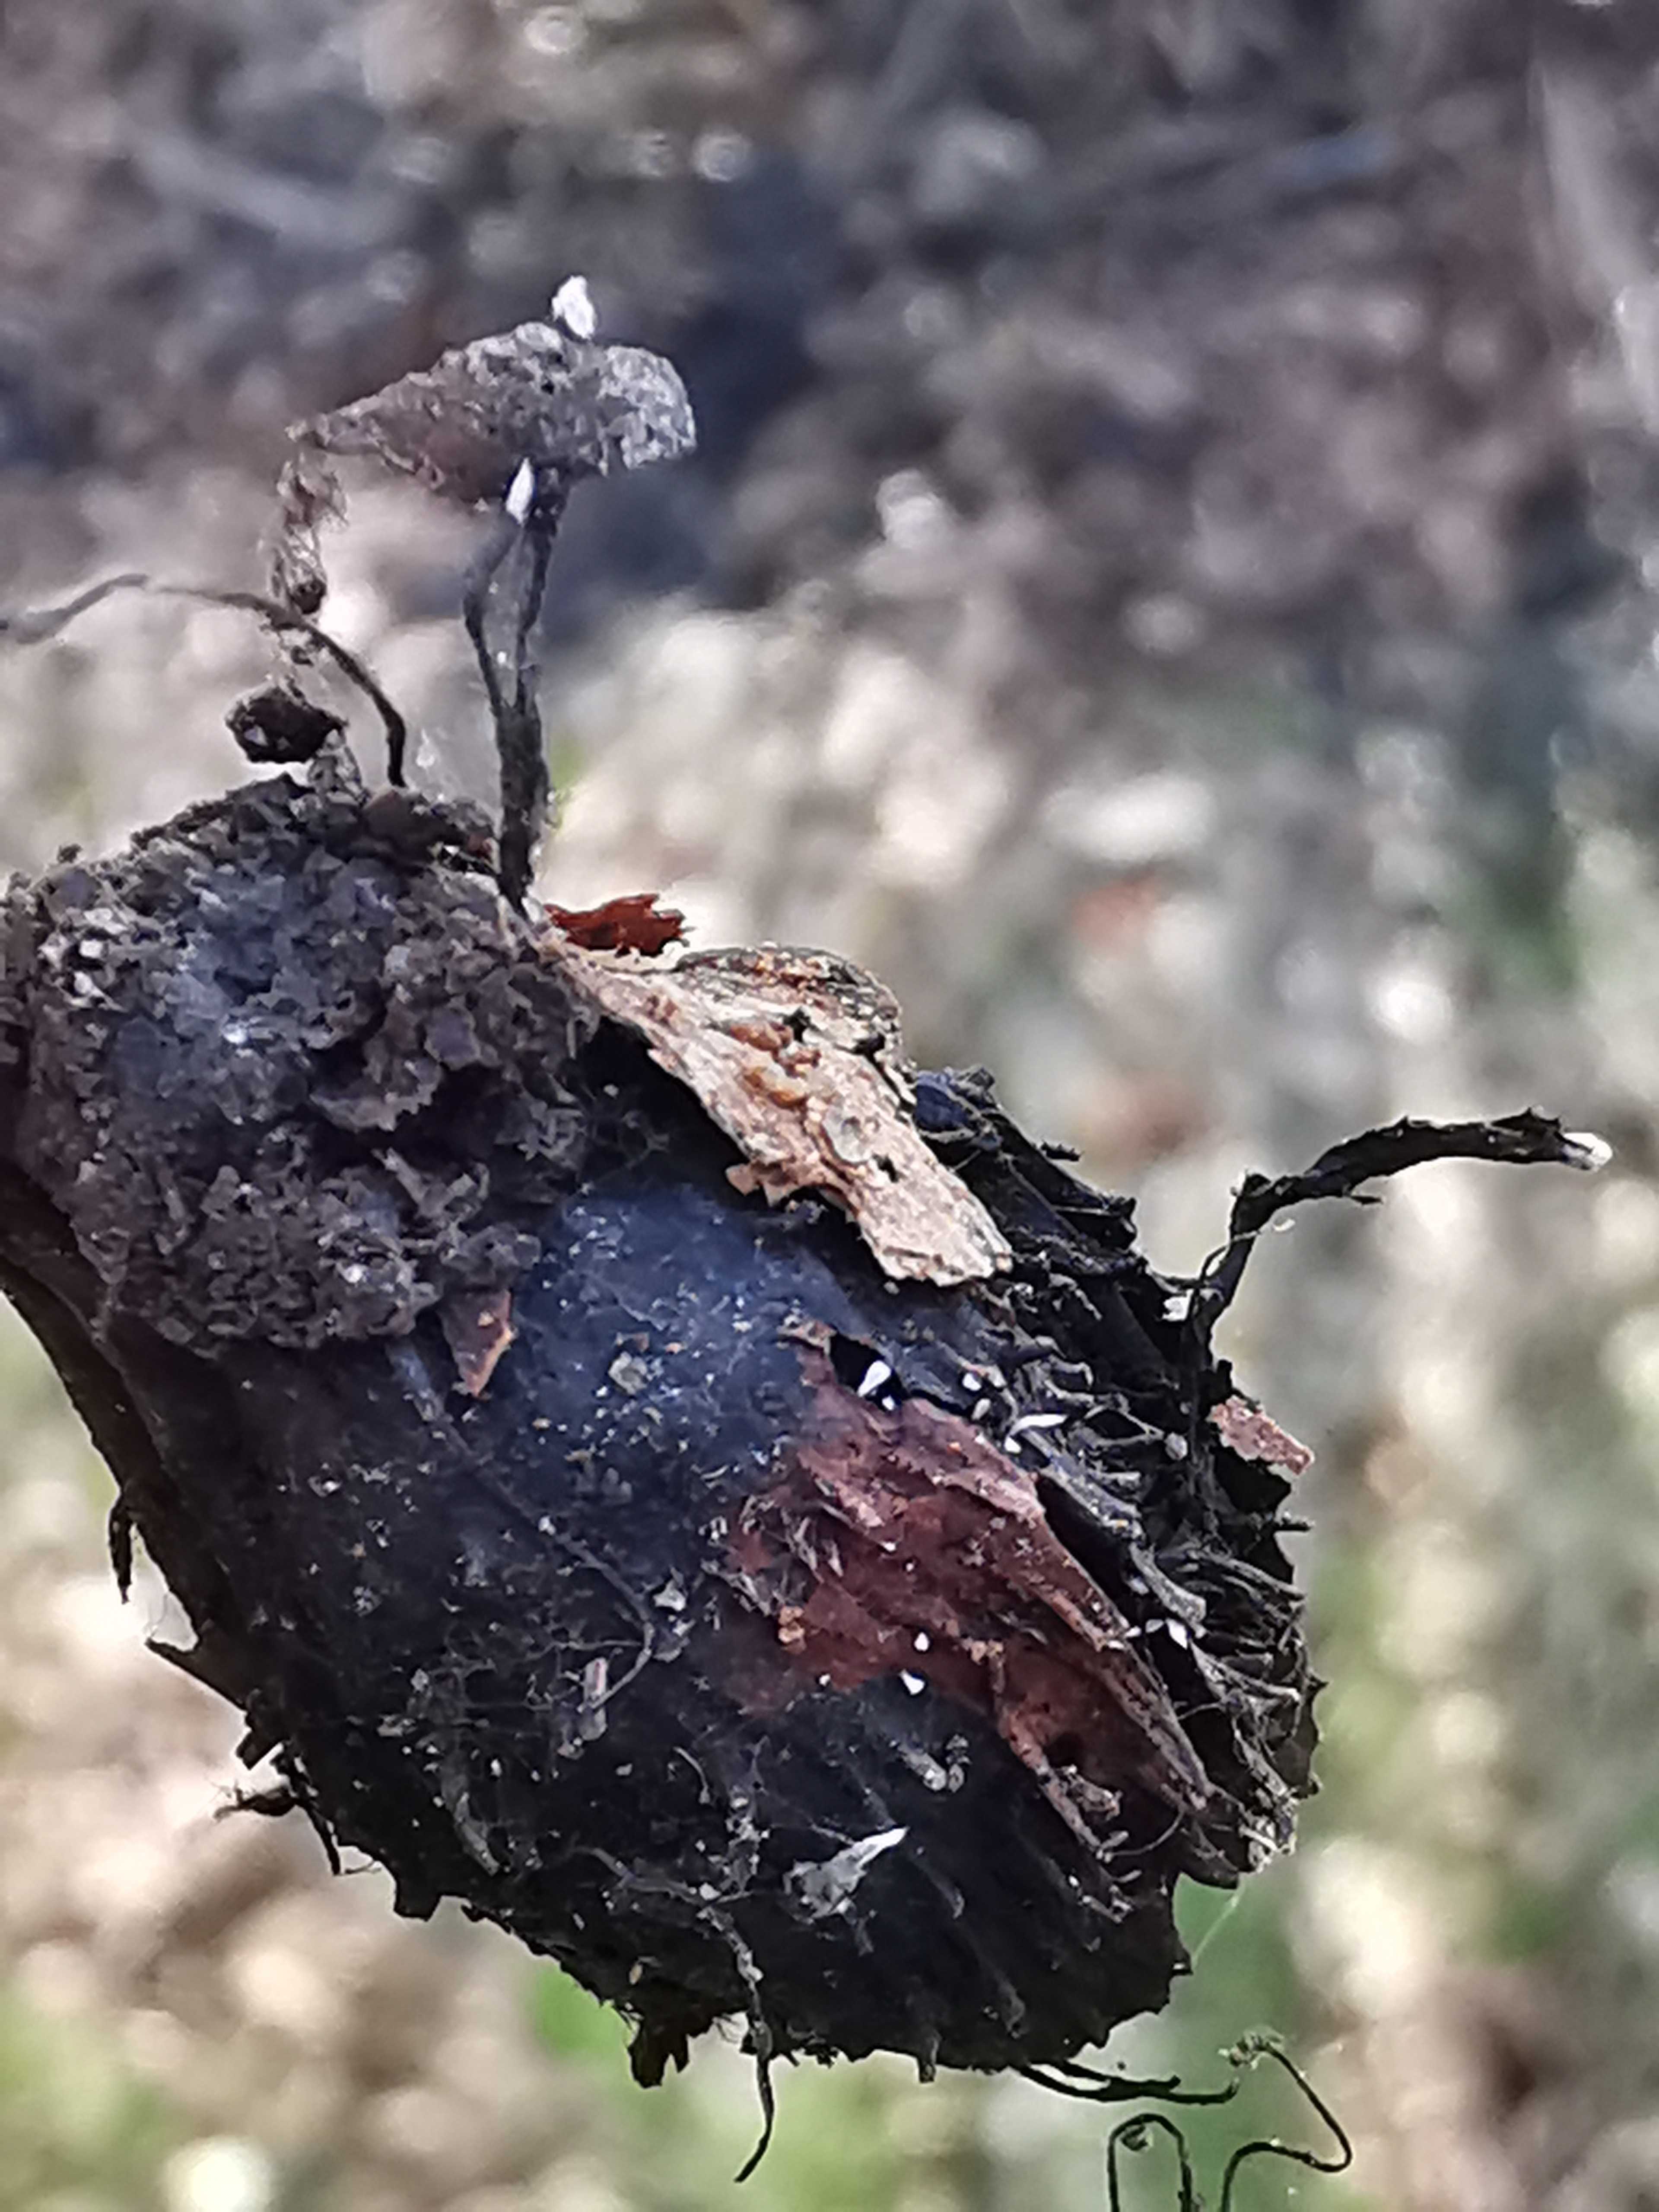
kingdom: Fungi
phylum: Ascomycota
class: Sordariomycetes
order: Xylariales
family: Xylariaceae
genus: Xylaria
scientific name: Xylaria carpophila
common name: bogskål-stødsvamp
